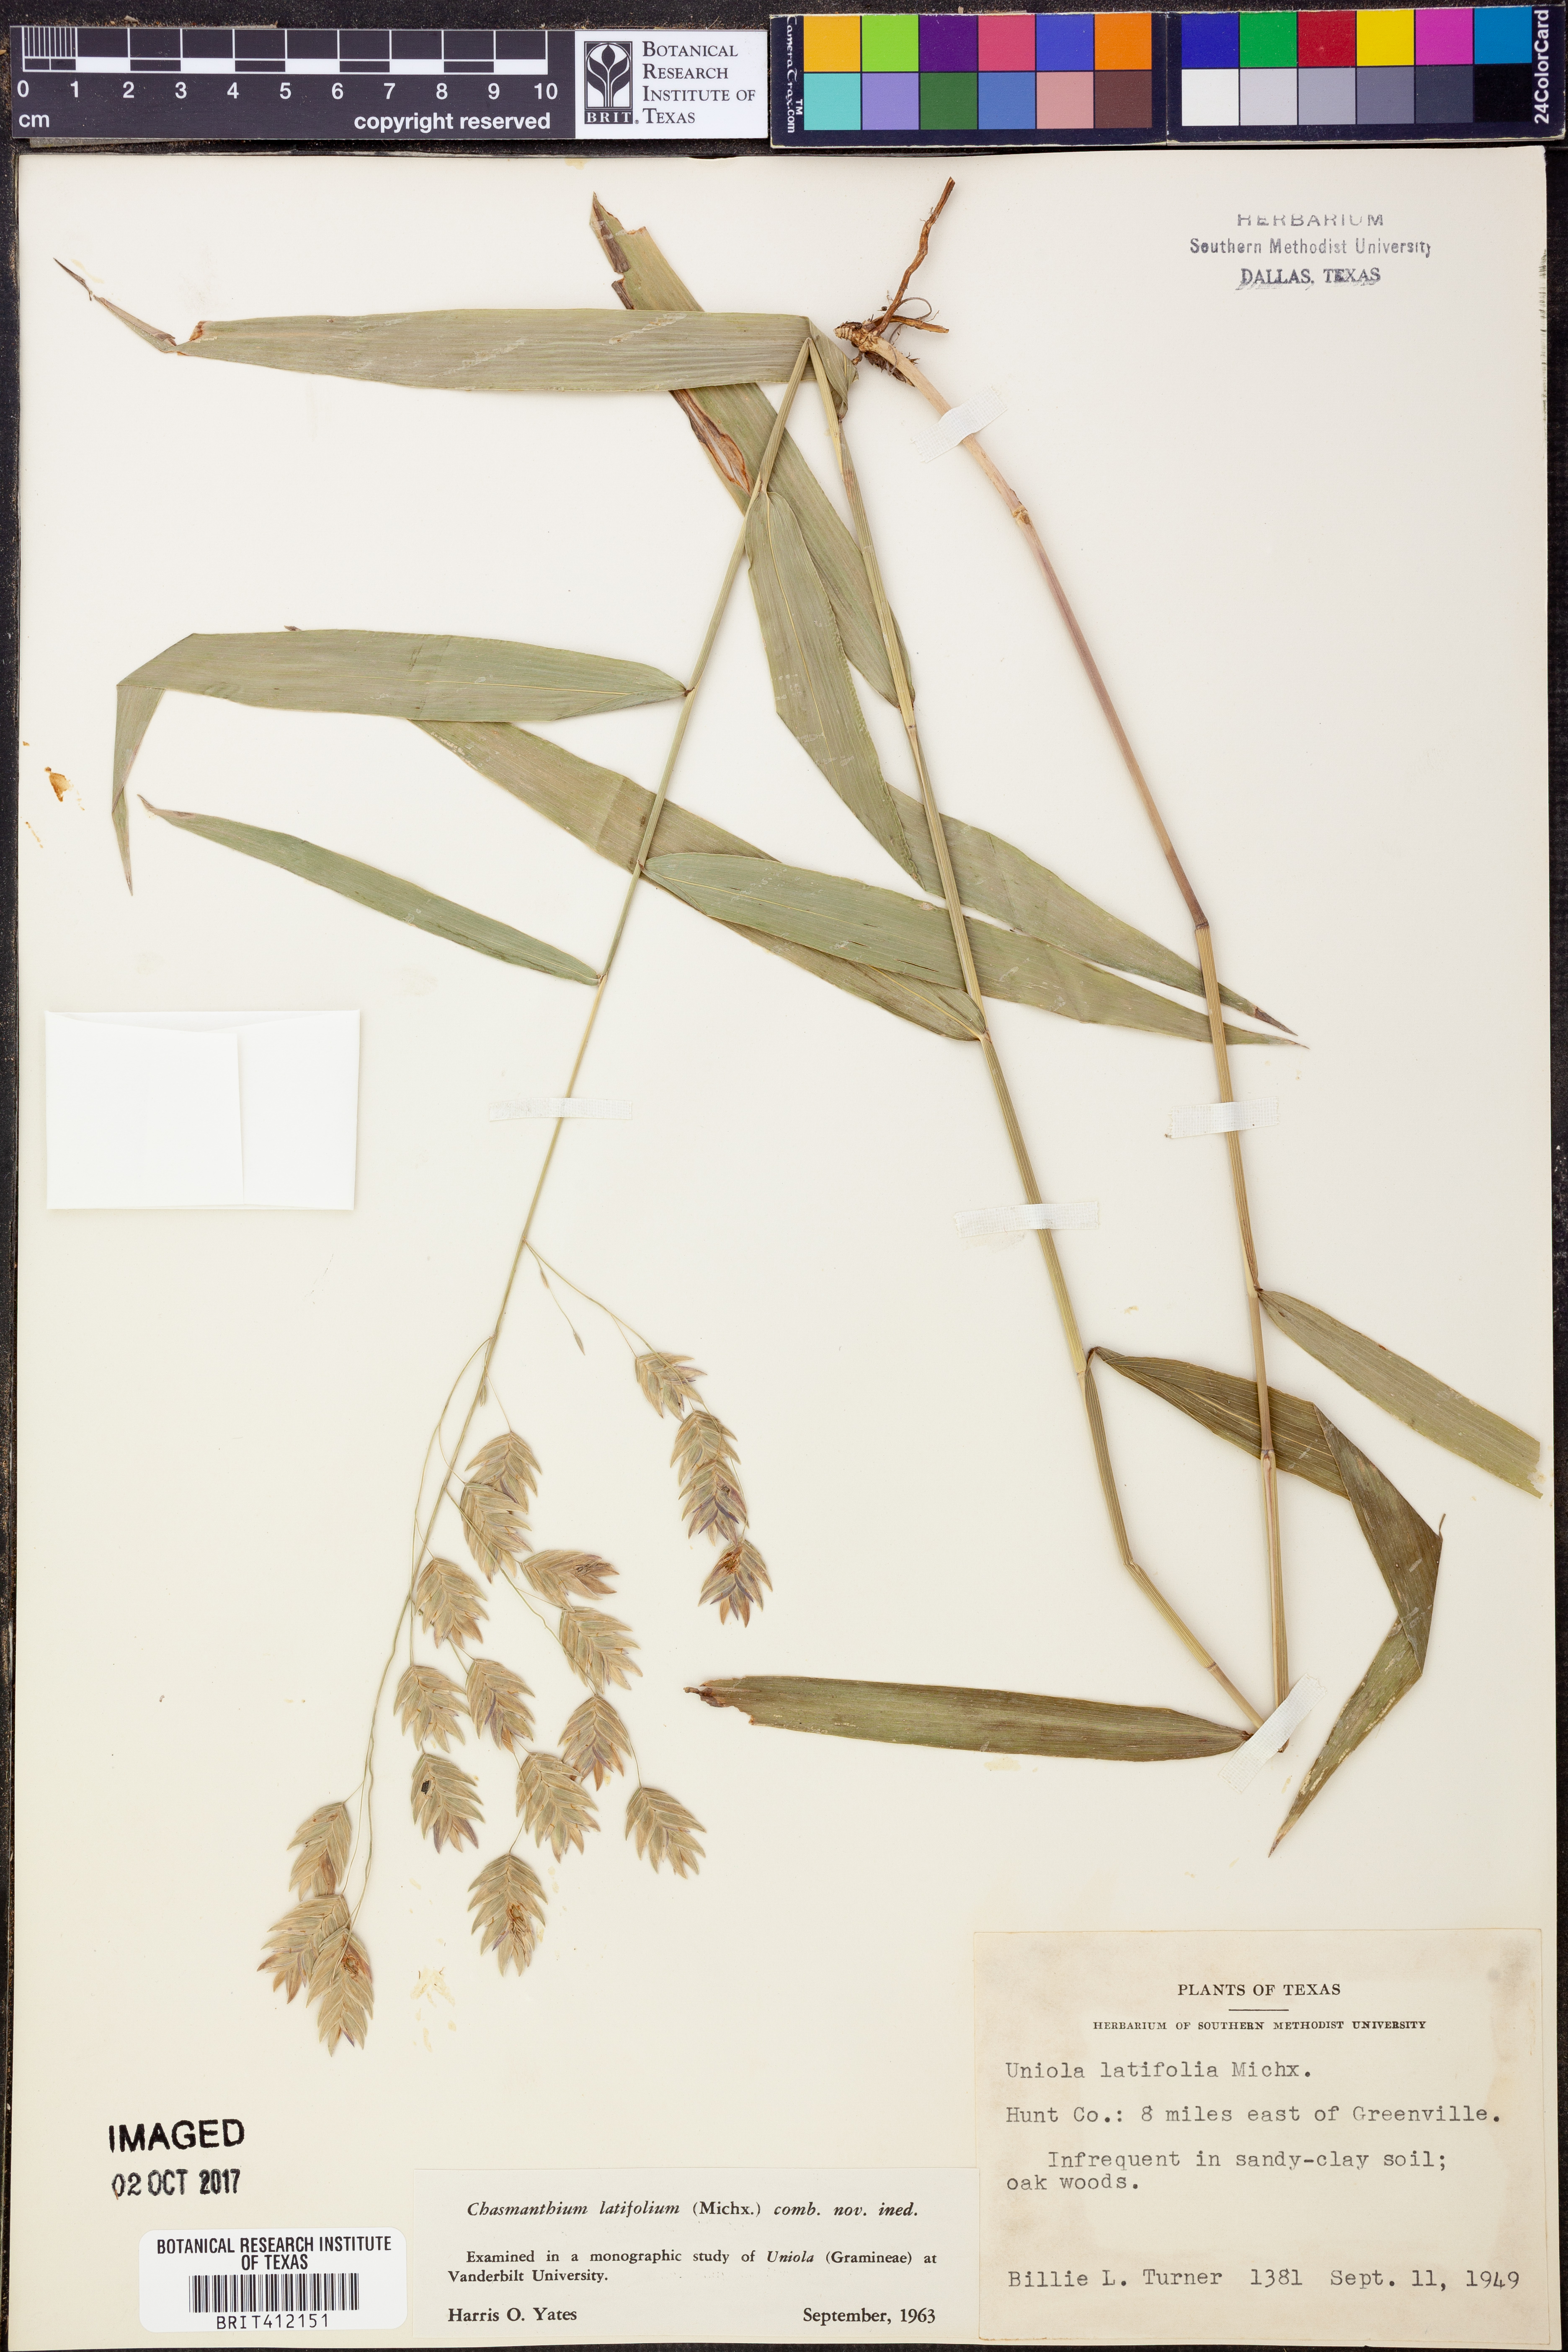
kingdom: Plantae
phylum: Tracheophyta
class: Liliopsida
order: Poales
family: Poaceae
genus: Chasmanthium
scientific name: Chasmanthium latifolium
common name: Broad-leaved chasmanthium
